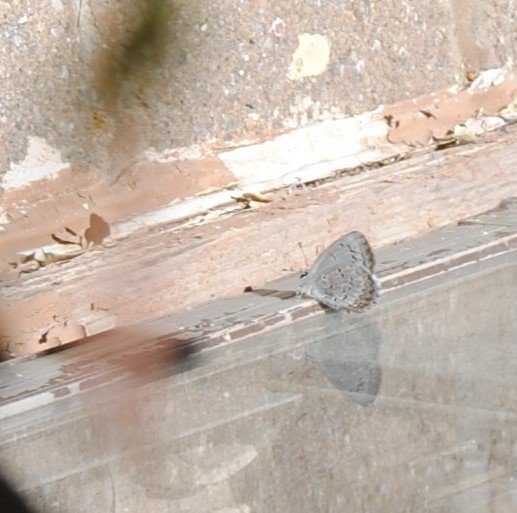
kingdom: Animalia
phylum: Arthropoda
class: Insecta
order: Lepidoptera
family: Lycaenidae
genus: Celastrina
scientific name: Celastrina
